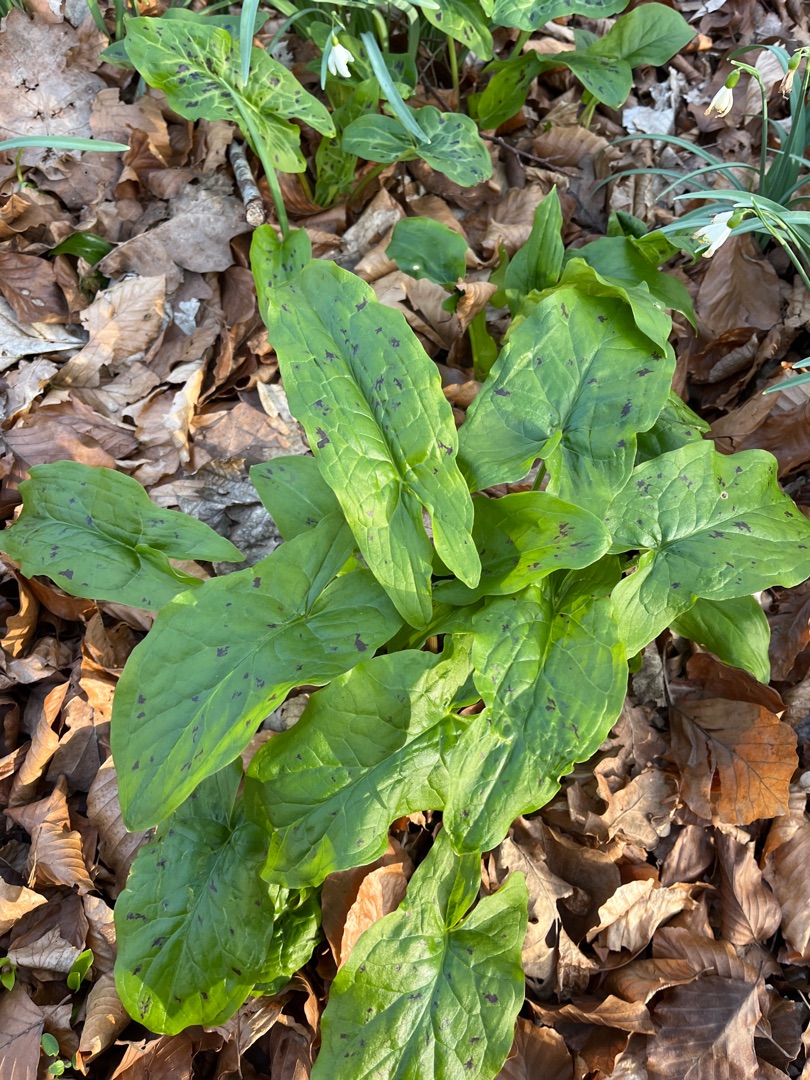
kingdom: Plantae
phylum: Tracheophyta
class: Liliopsida
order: Alismatales
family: Araceae
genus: Arum
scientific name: Arum maculatum
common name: Plettet arum
